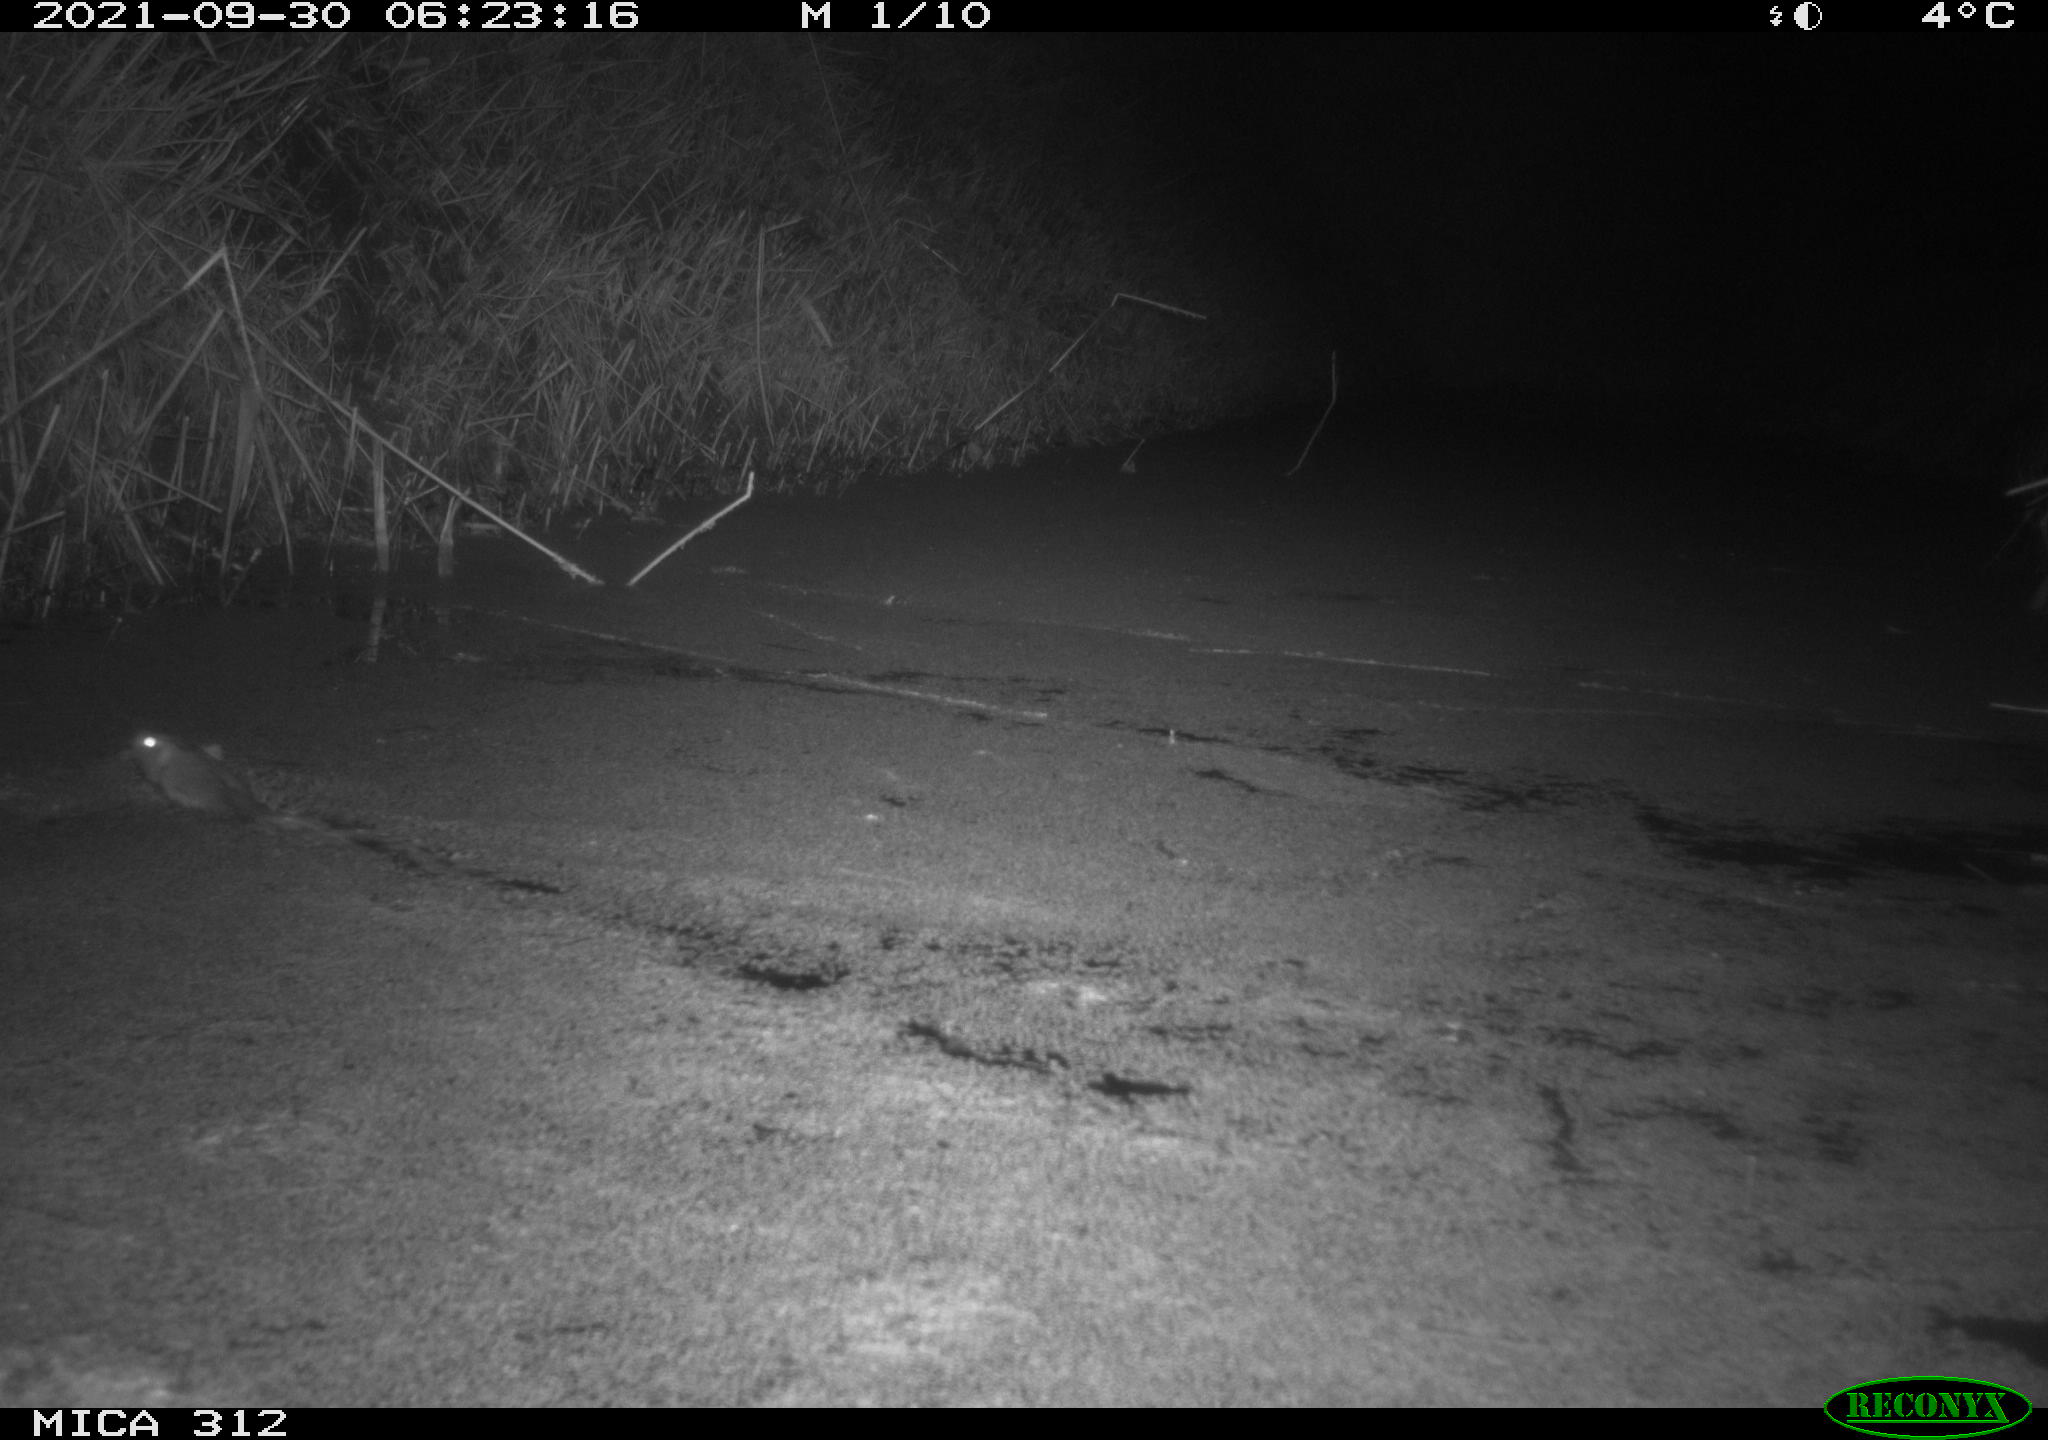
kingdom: Animalia
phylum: Chordata
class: Mammalia
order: Rodentia
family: Muridae
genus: Rattus
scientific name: Rattus norvegicus
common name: Brown rat
